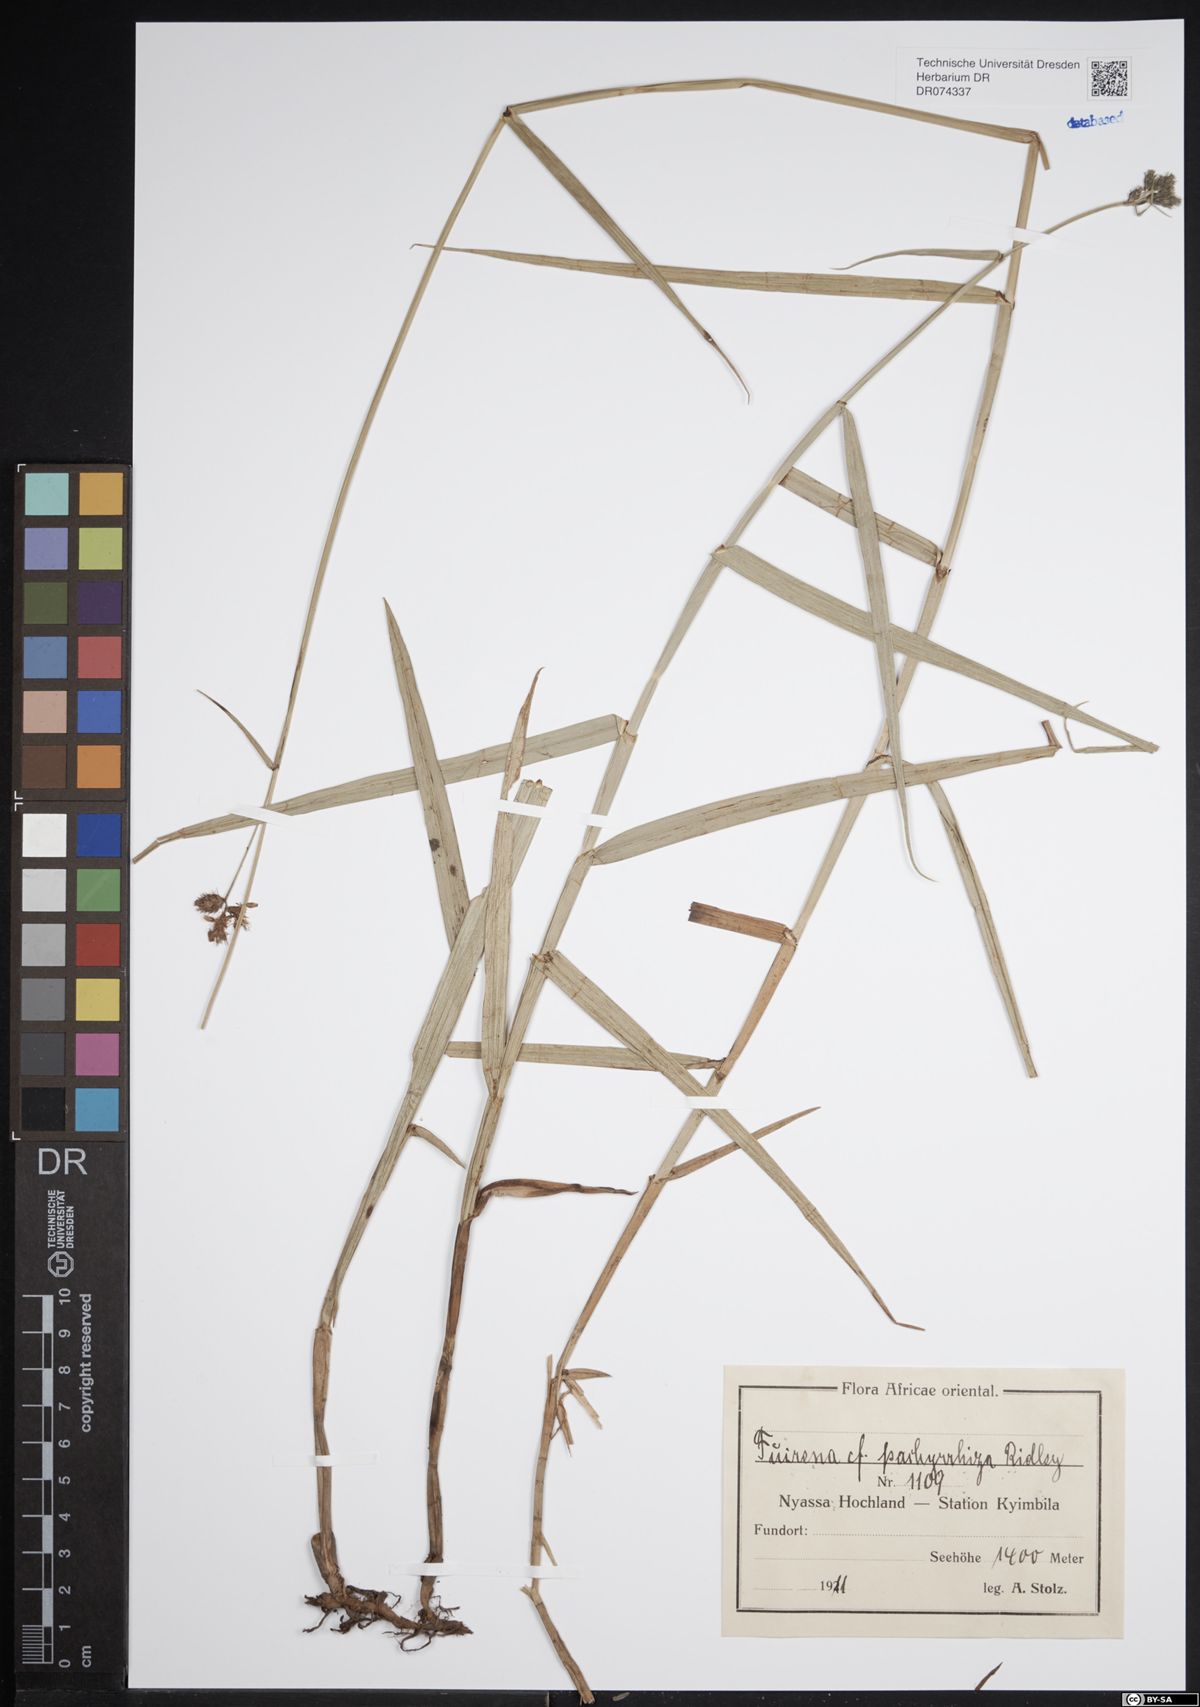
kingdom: Plantae
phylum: Tracheophyta
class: Liliopsida
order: Poales
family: Cyperaceae
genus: Fuirena
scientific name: Fuirena pachyrrhiza
